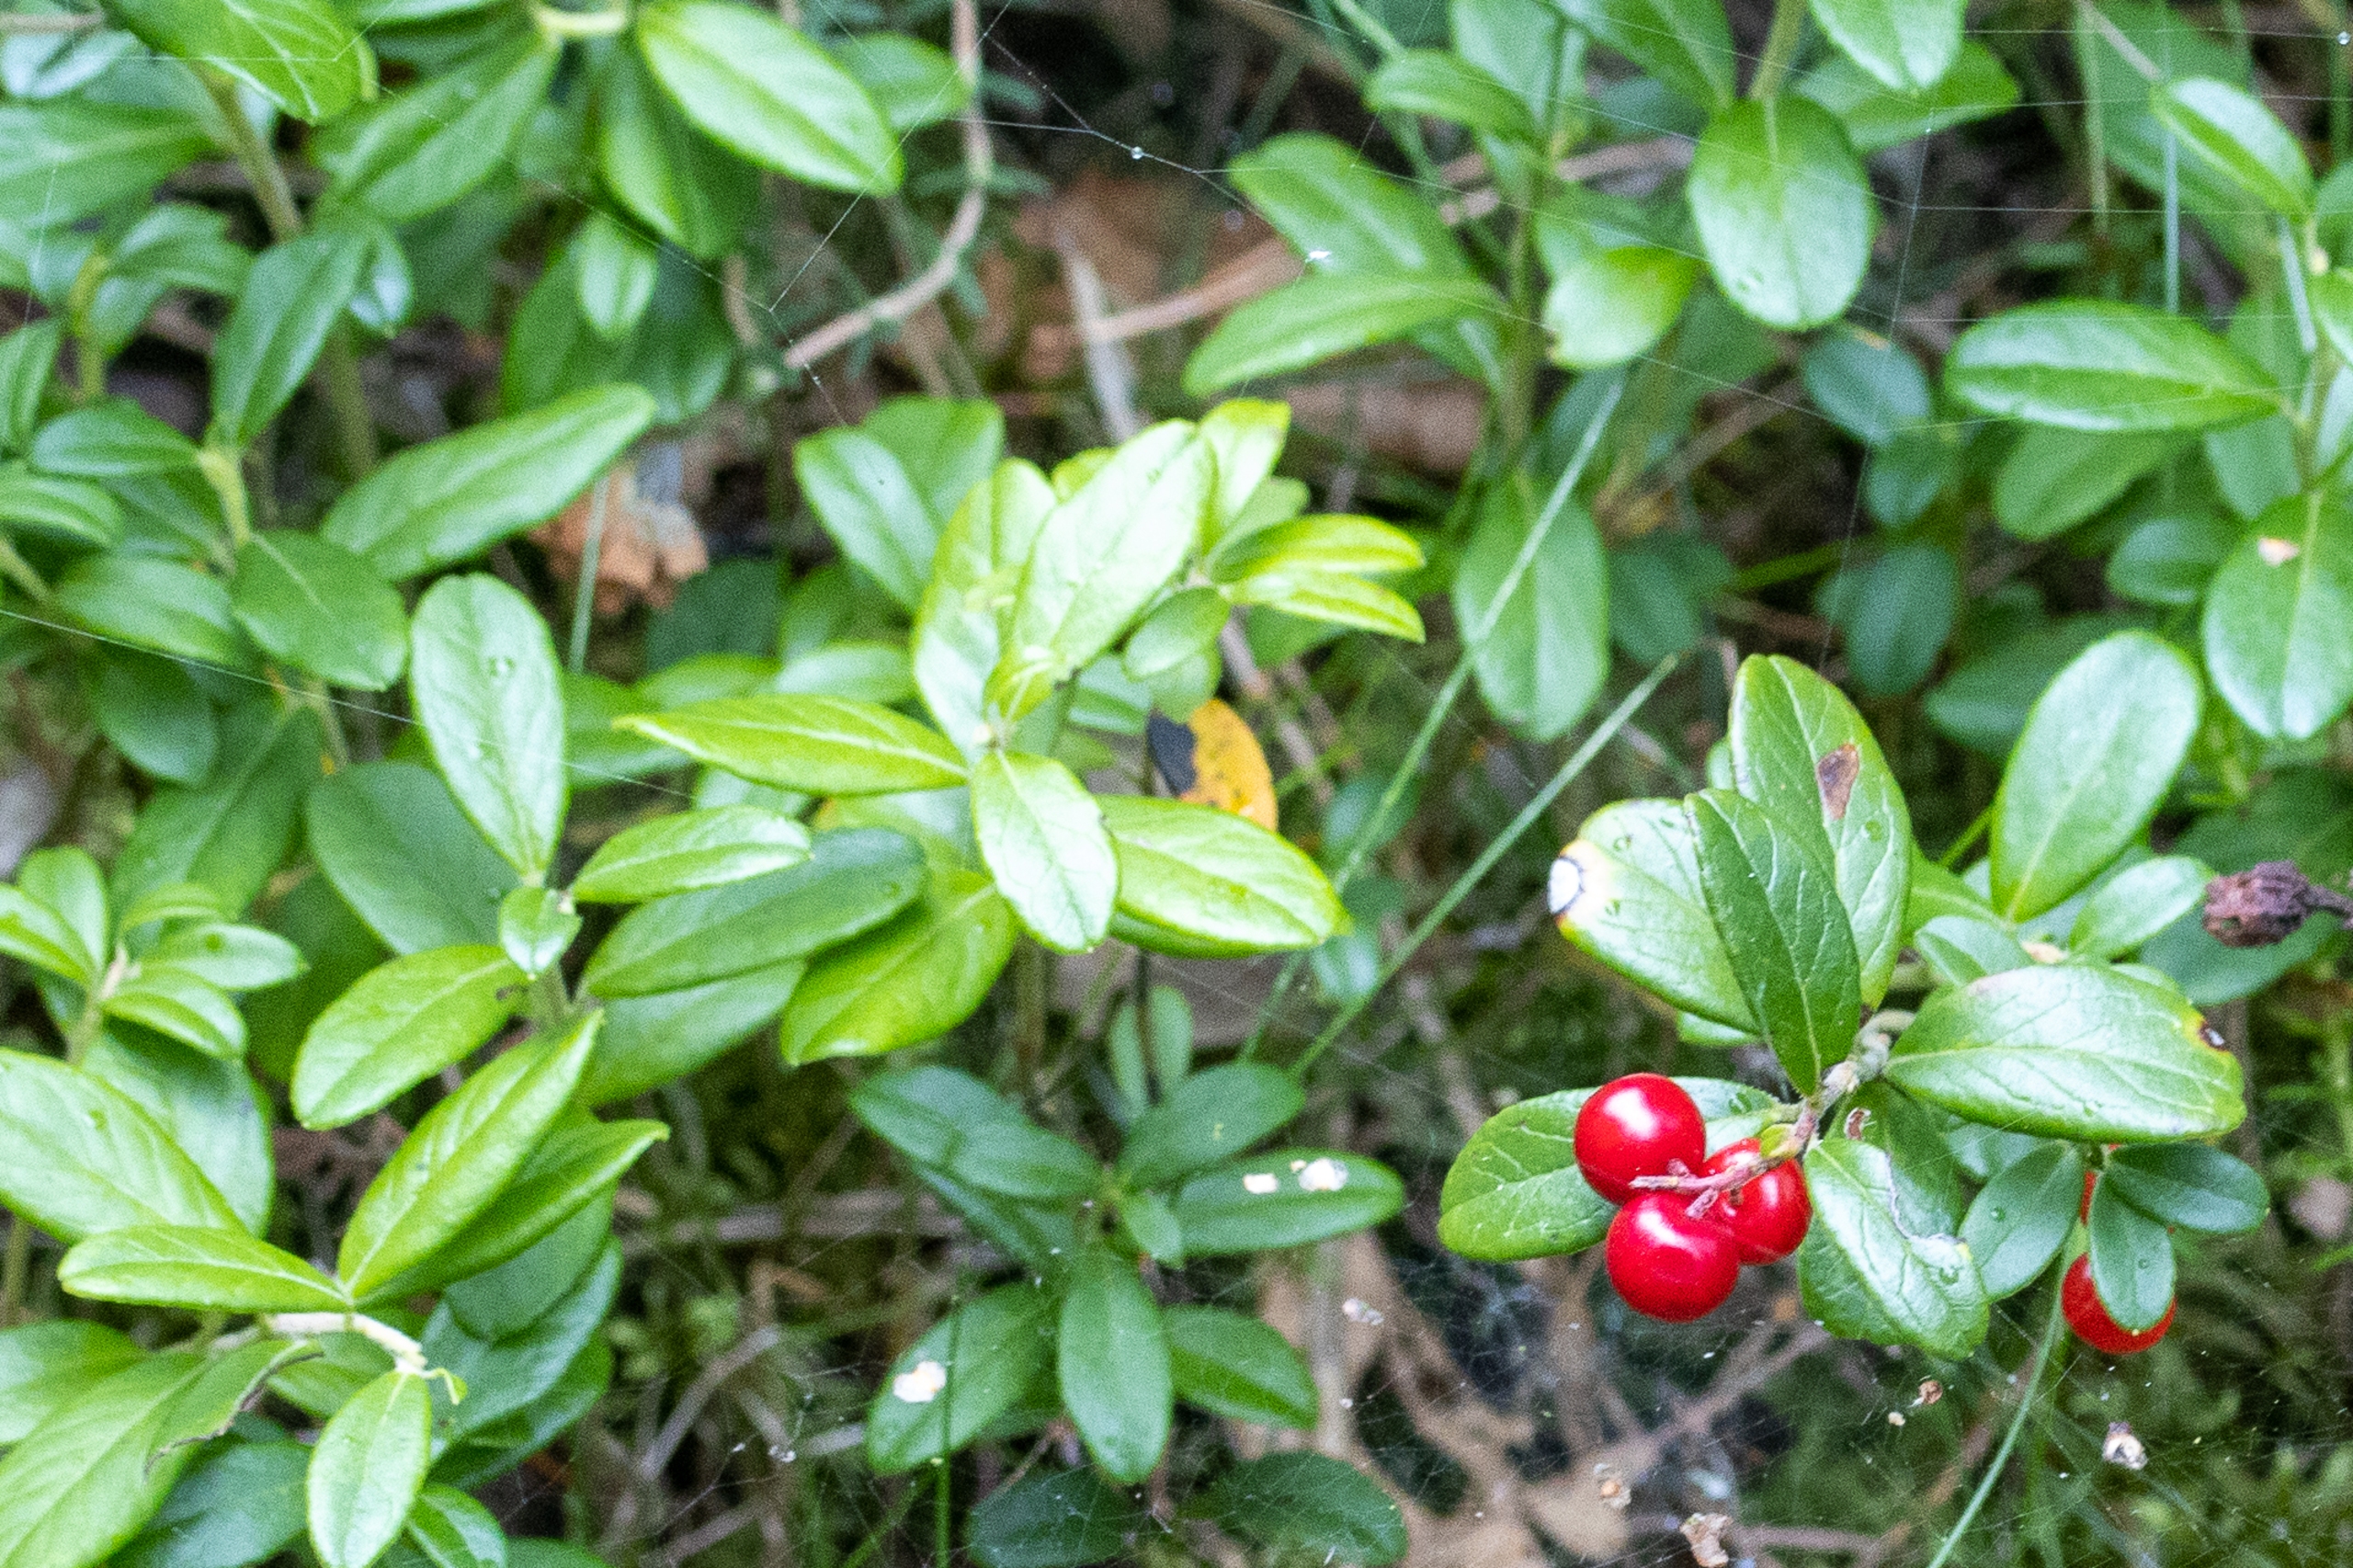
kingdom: Plantae
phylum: Tracheophyta
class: Magnoliopsida
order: Ericales
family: Ericaceae
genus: Vaccinium
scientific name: Vaccinium vitis-idaea
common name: Tyttebær
